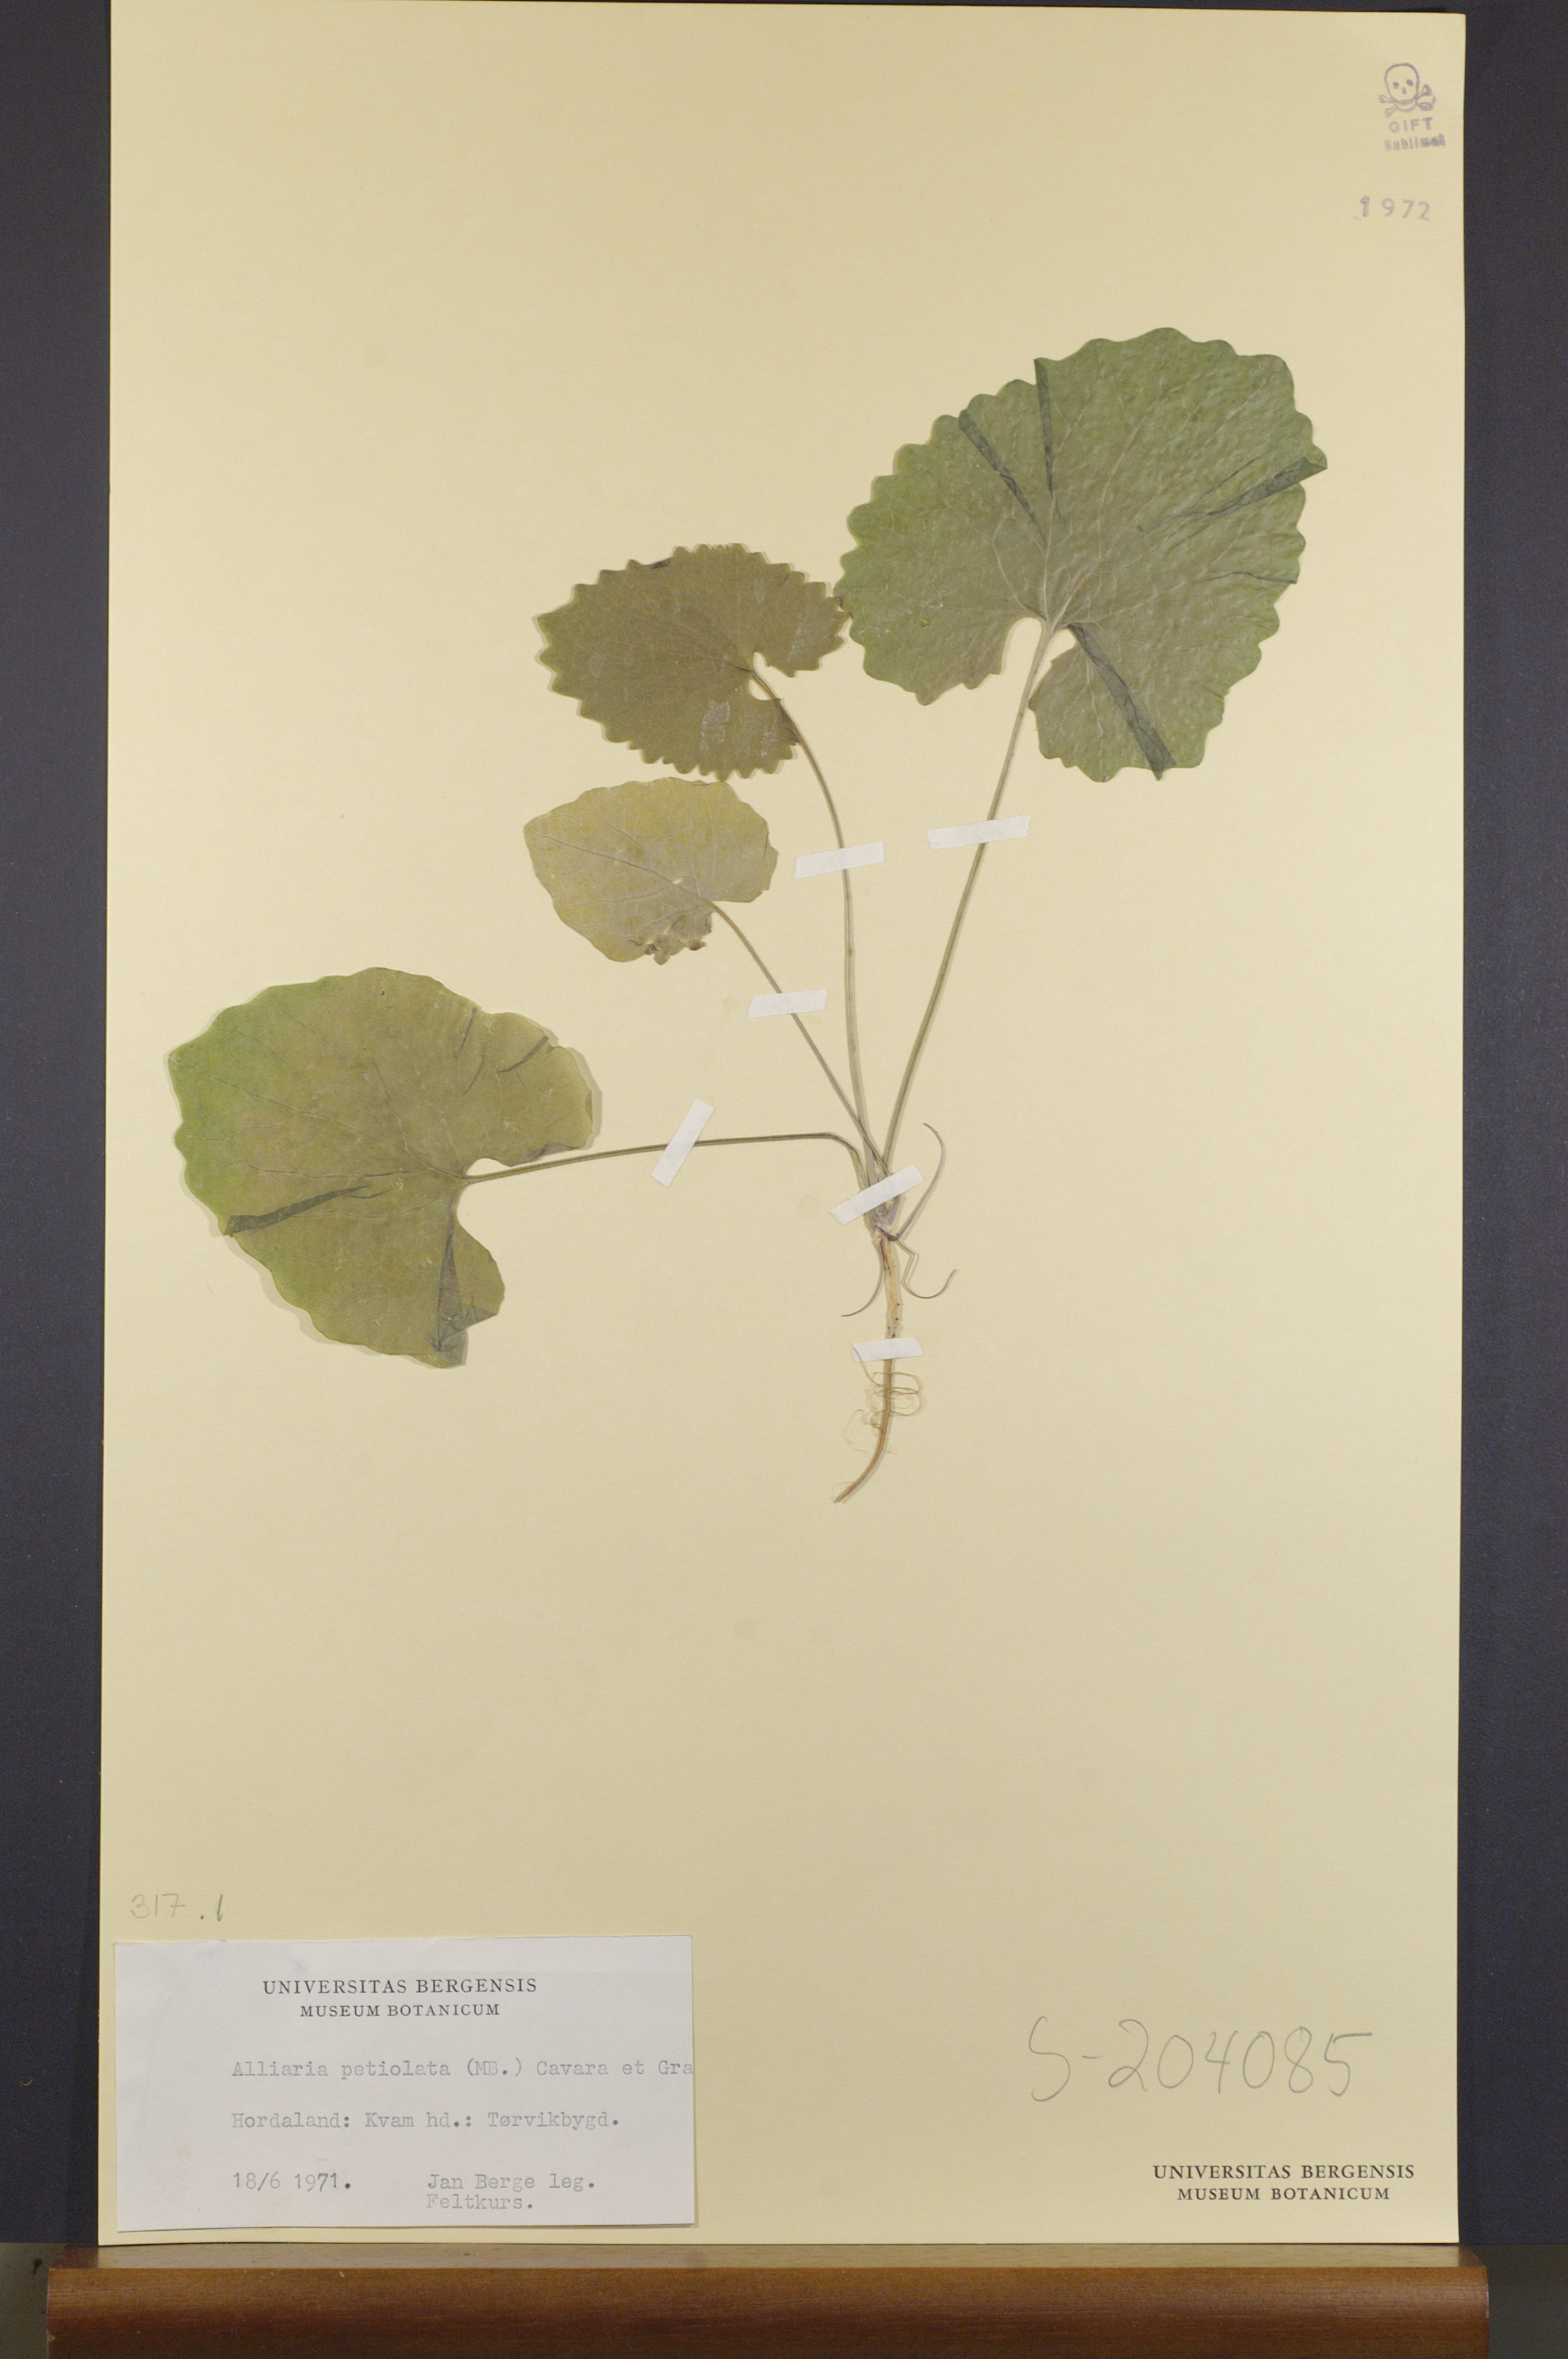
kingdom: Plantae
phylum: Tracheophyta
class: Magnoliopsida
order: Brassicales
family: Brassicaceae
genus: Alliaria
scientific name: Alliaria petiolata
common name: Garlic mustard
